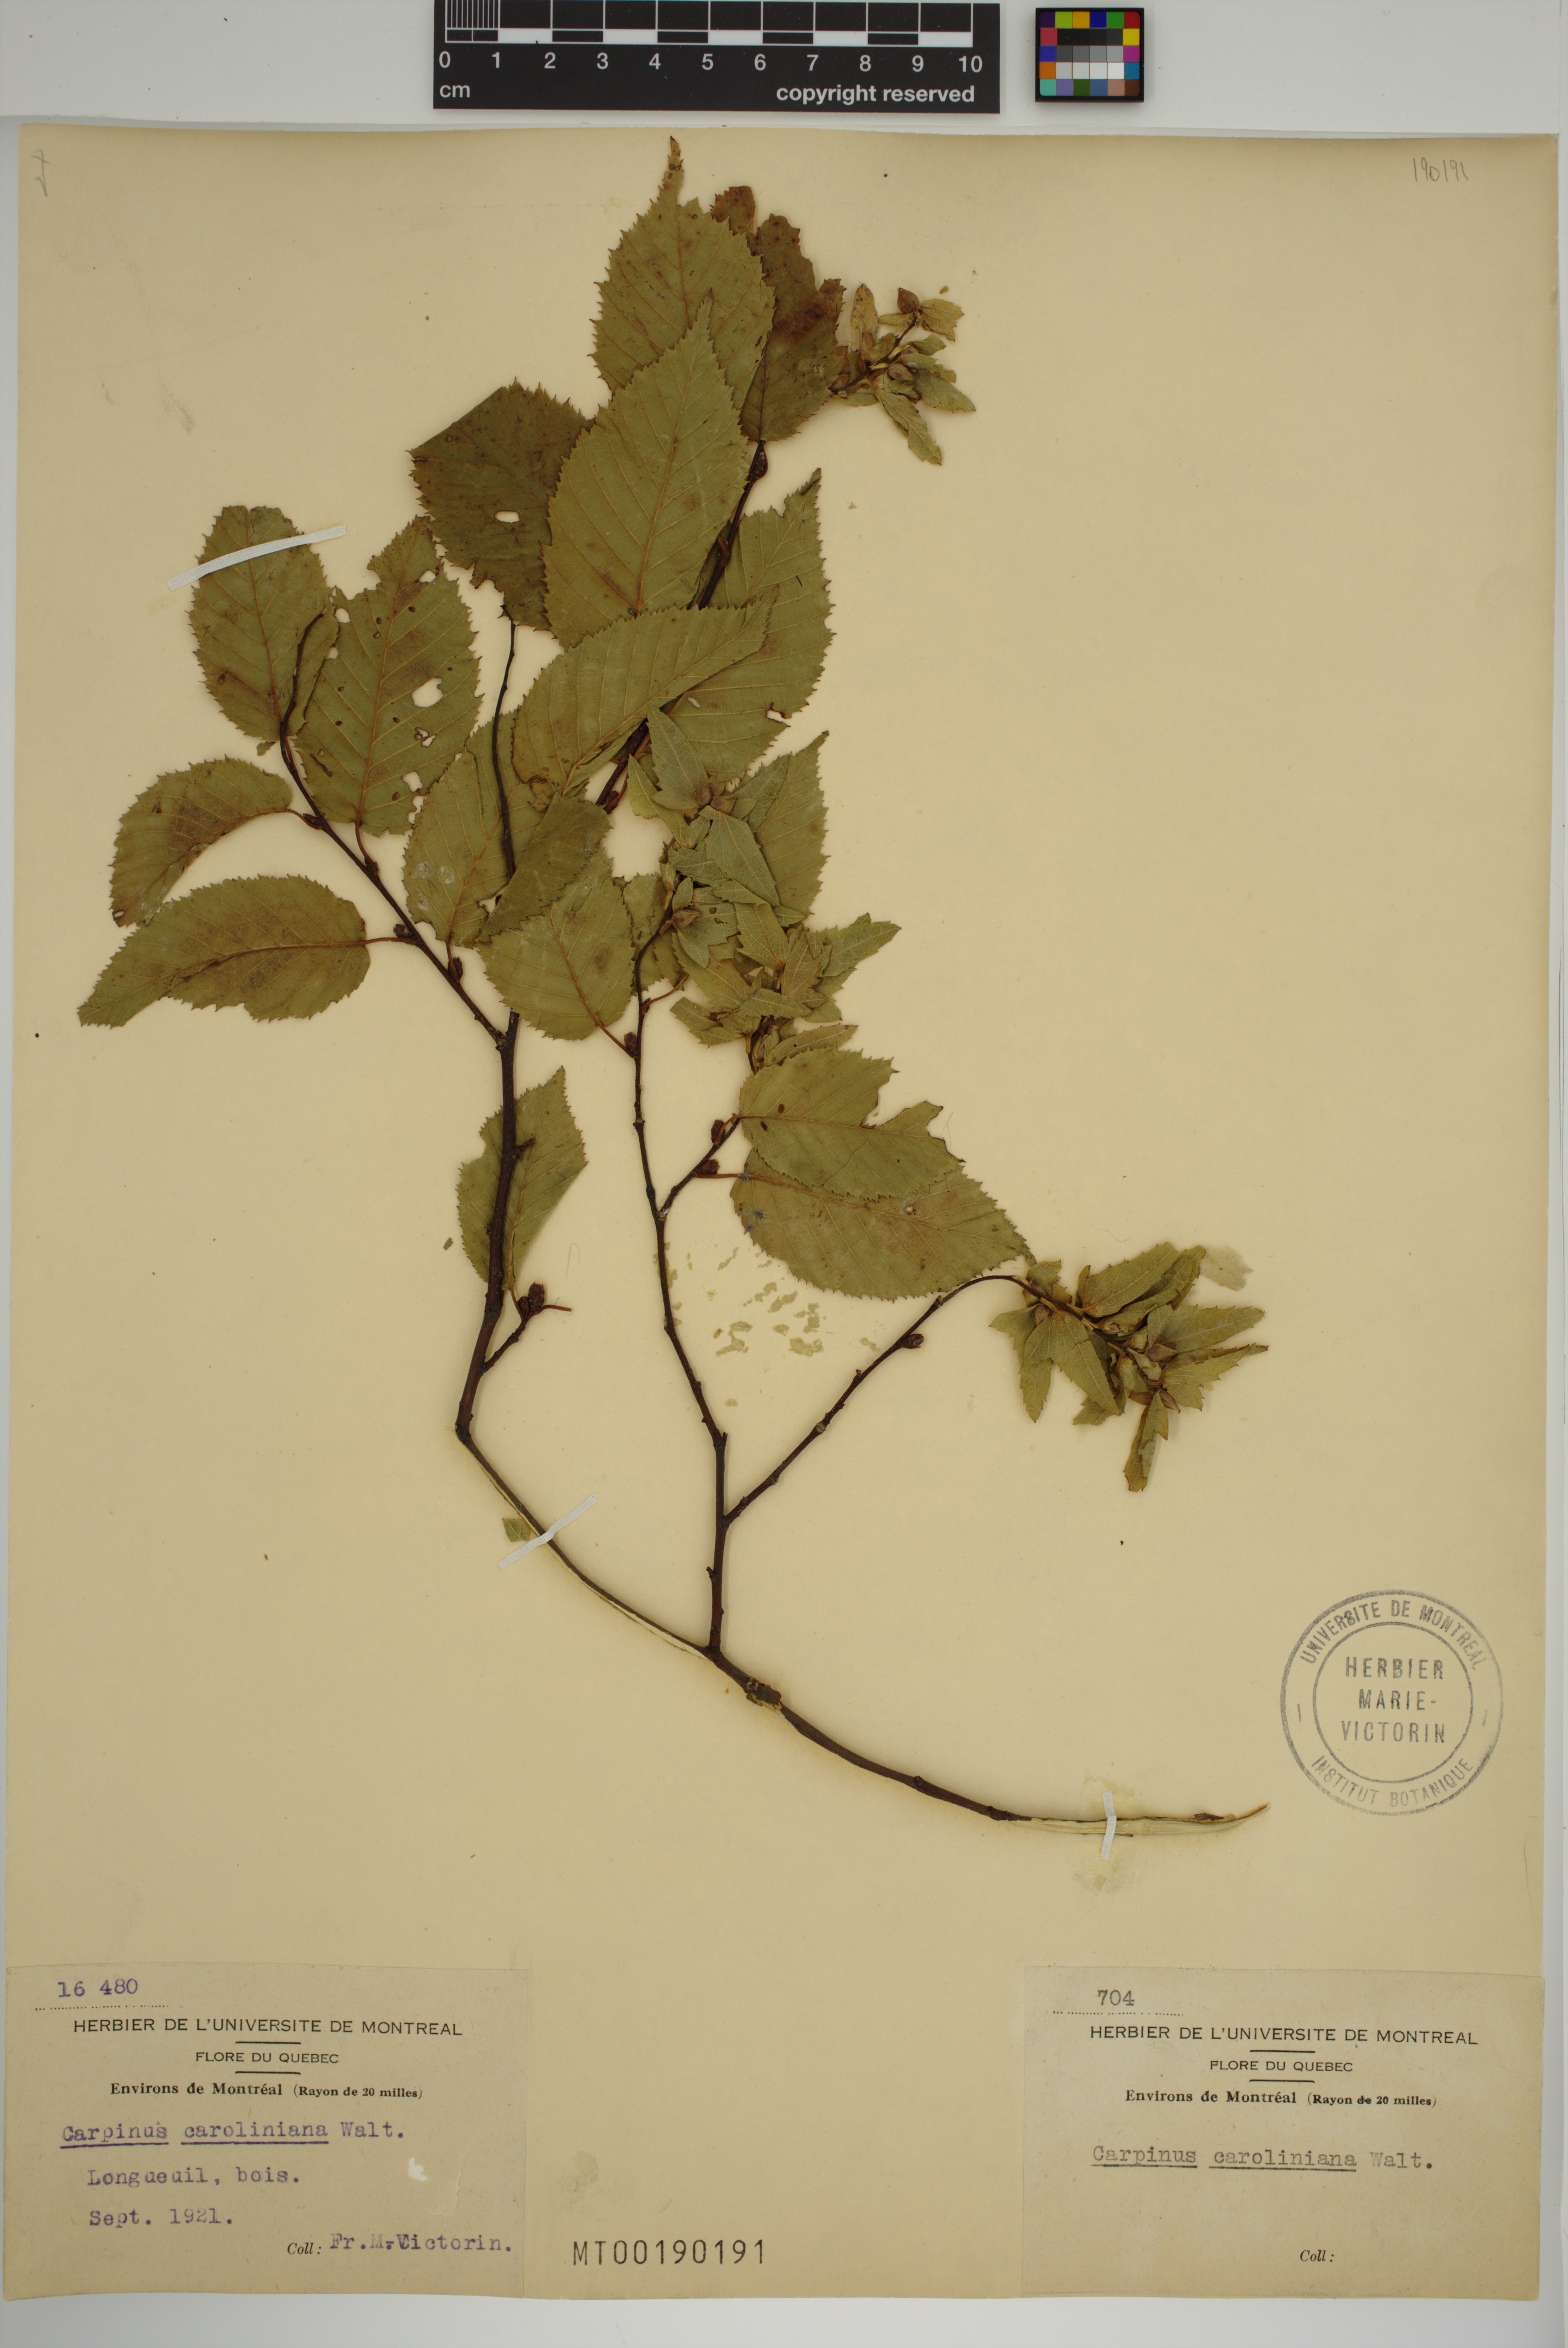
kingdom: Plantae
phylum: Tracheophyta
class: Magnoliopsida
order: Fagales
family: Betulaceae
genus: Carpinus
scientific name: Carpinus caroliniana
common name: American hornbeam
